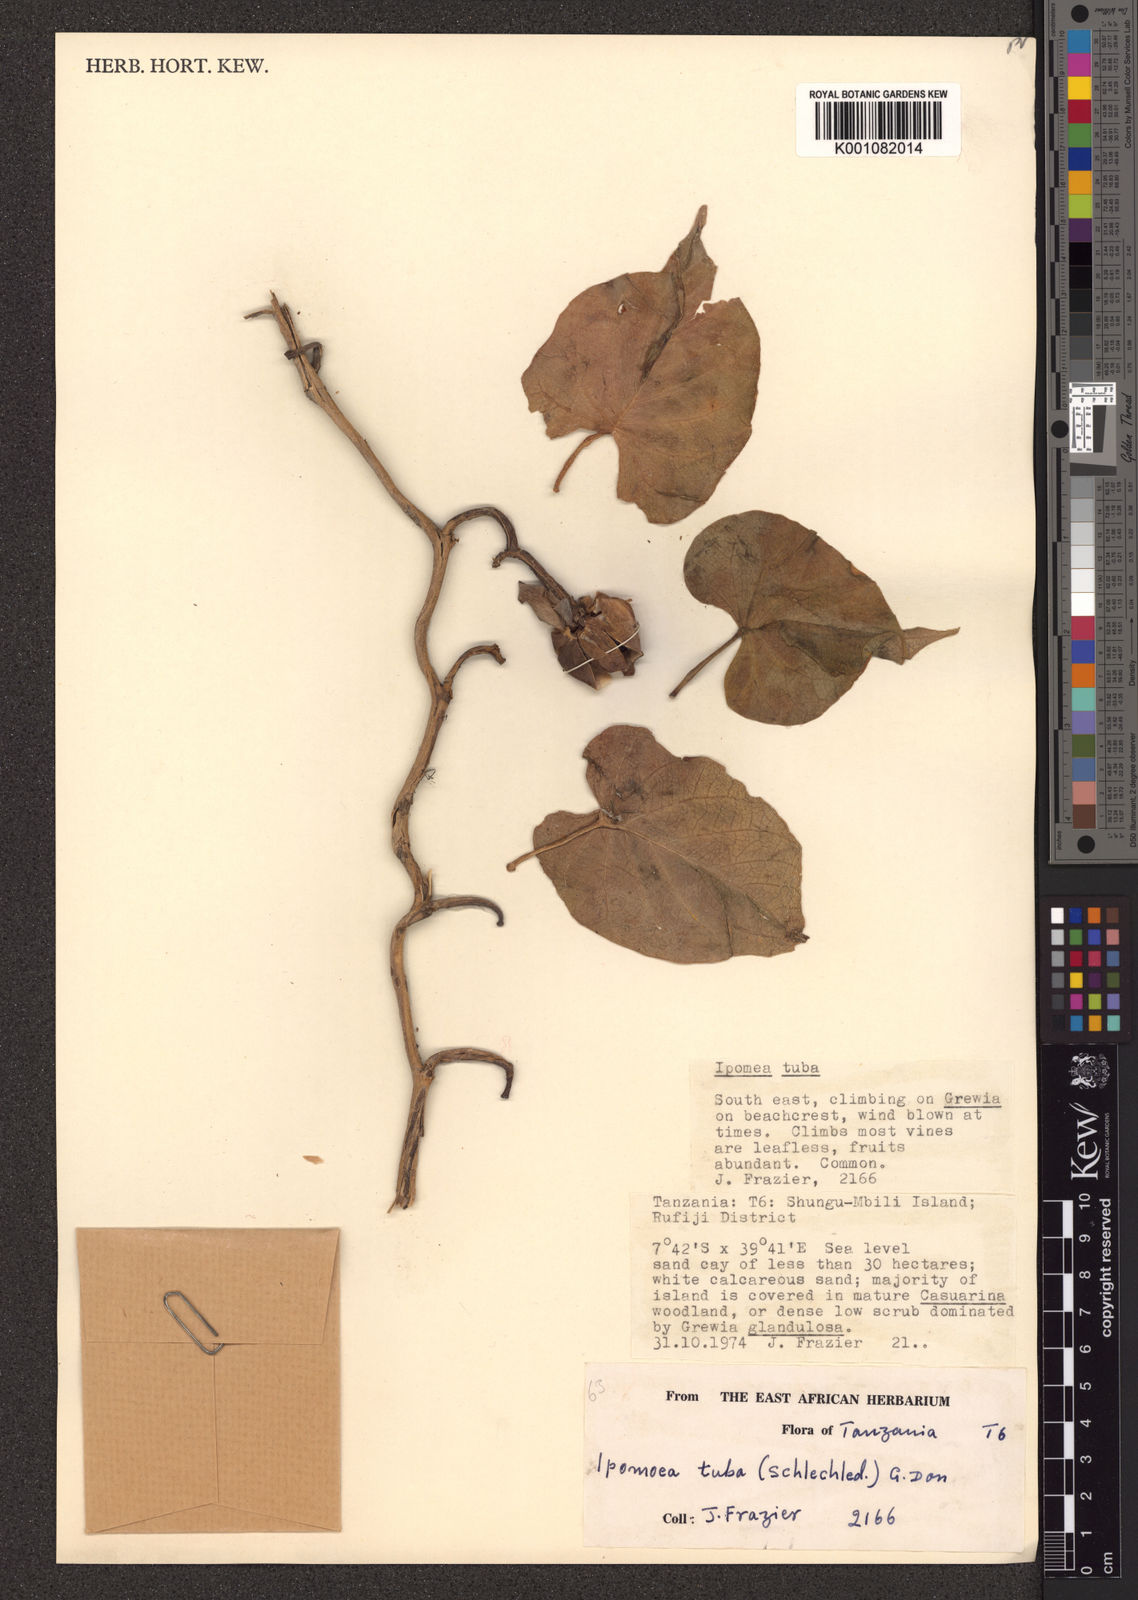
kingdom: Plantae
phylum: Tracheophyta
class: Magnoliopsida
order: Solanales
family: Convolvulaceae
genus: Ipomoea
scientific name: Ipomoea violacea
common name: Beach moonflower
